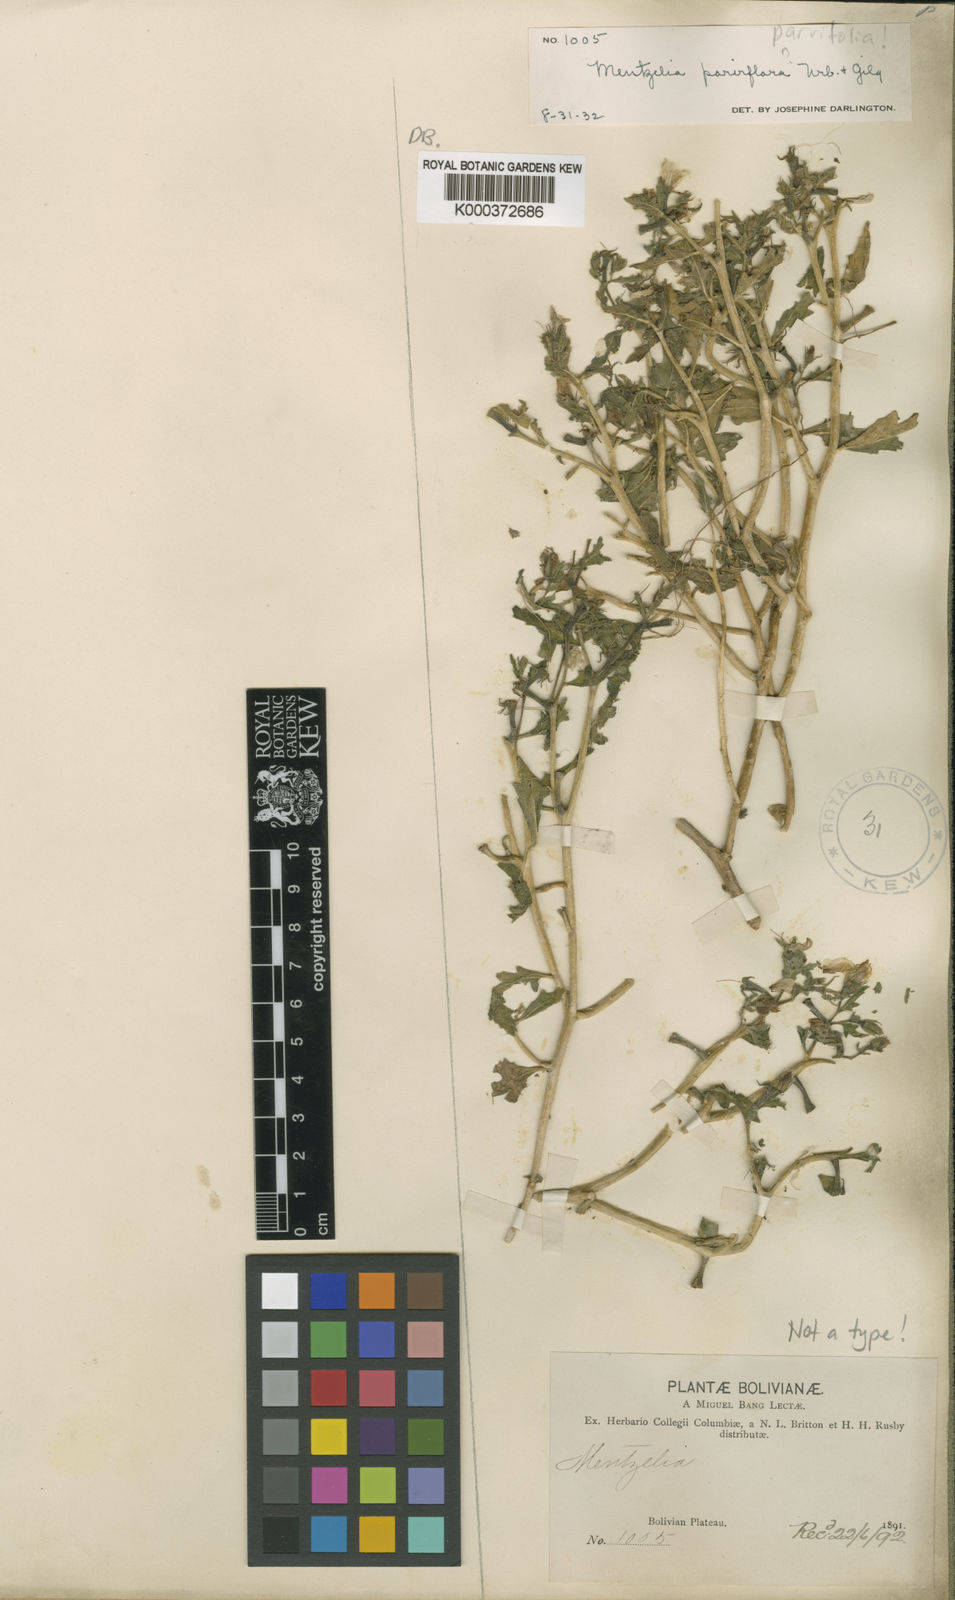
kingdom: Plantae
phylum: Tracheophyta
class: Magnoliopsida
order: Cornales
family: Loasaceae
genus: Mentzelia
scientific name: Mentzelia parvifolia
